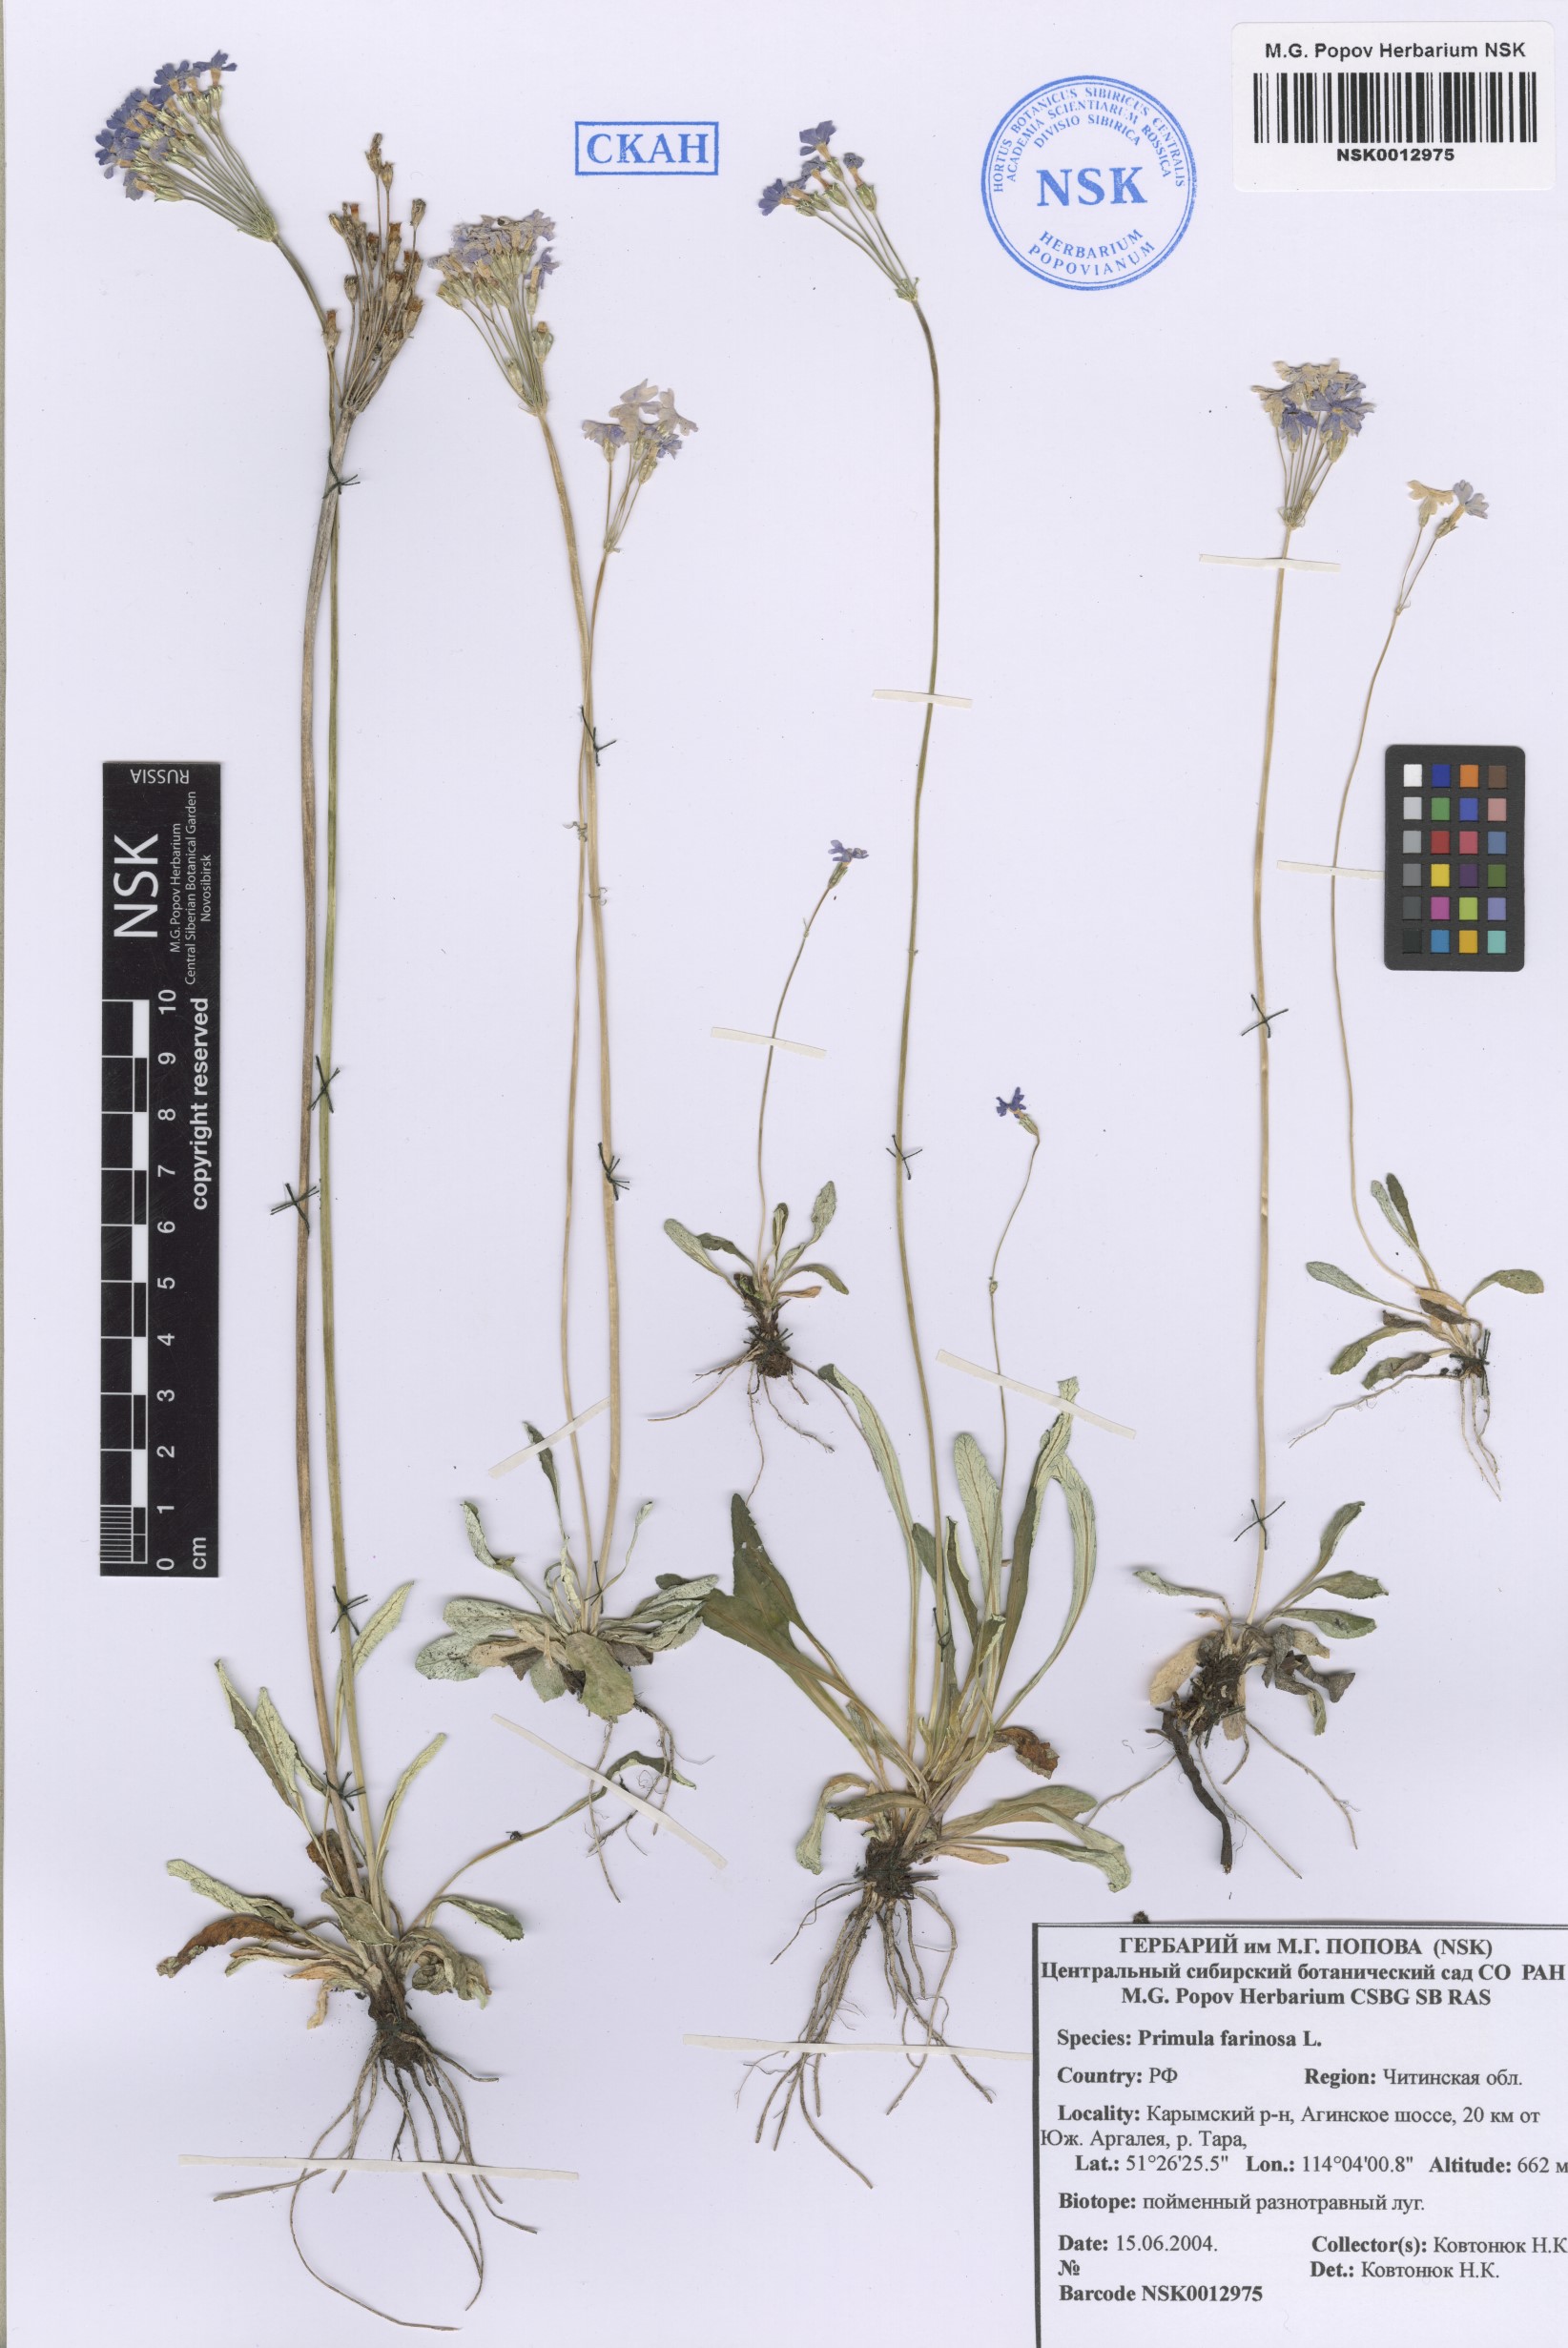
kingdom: Plantae
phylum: Tracheophyta
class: Magnoliopsida
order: Ericales
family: Primulaceae
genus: Primula
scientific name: Primula farinosa
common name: Bird's-eye primrose
